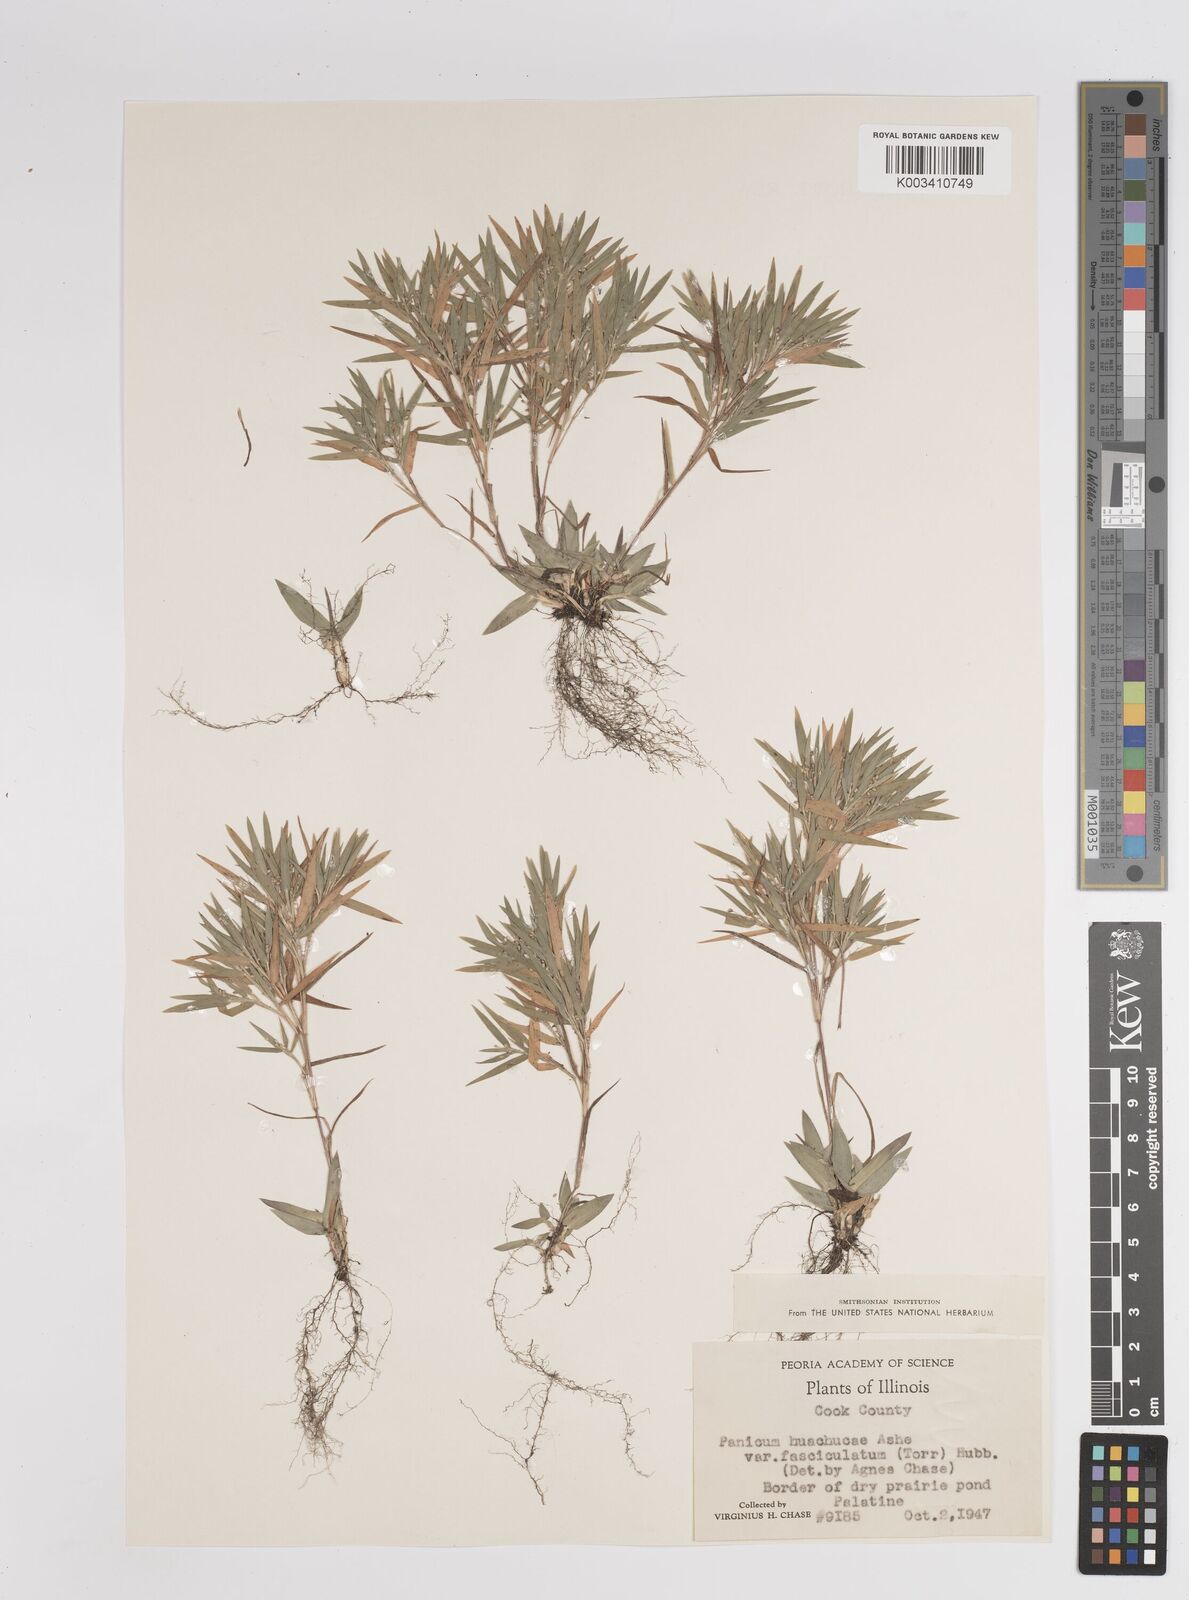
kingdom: Plantae
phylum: Tracheophyta
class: Liliopsida
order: Poales
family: Poaceae
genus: Dichanthelium
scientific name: Dichanthelium acuminatum
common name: Hairy panic grass
